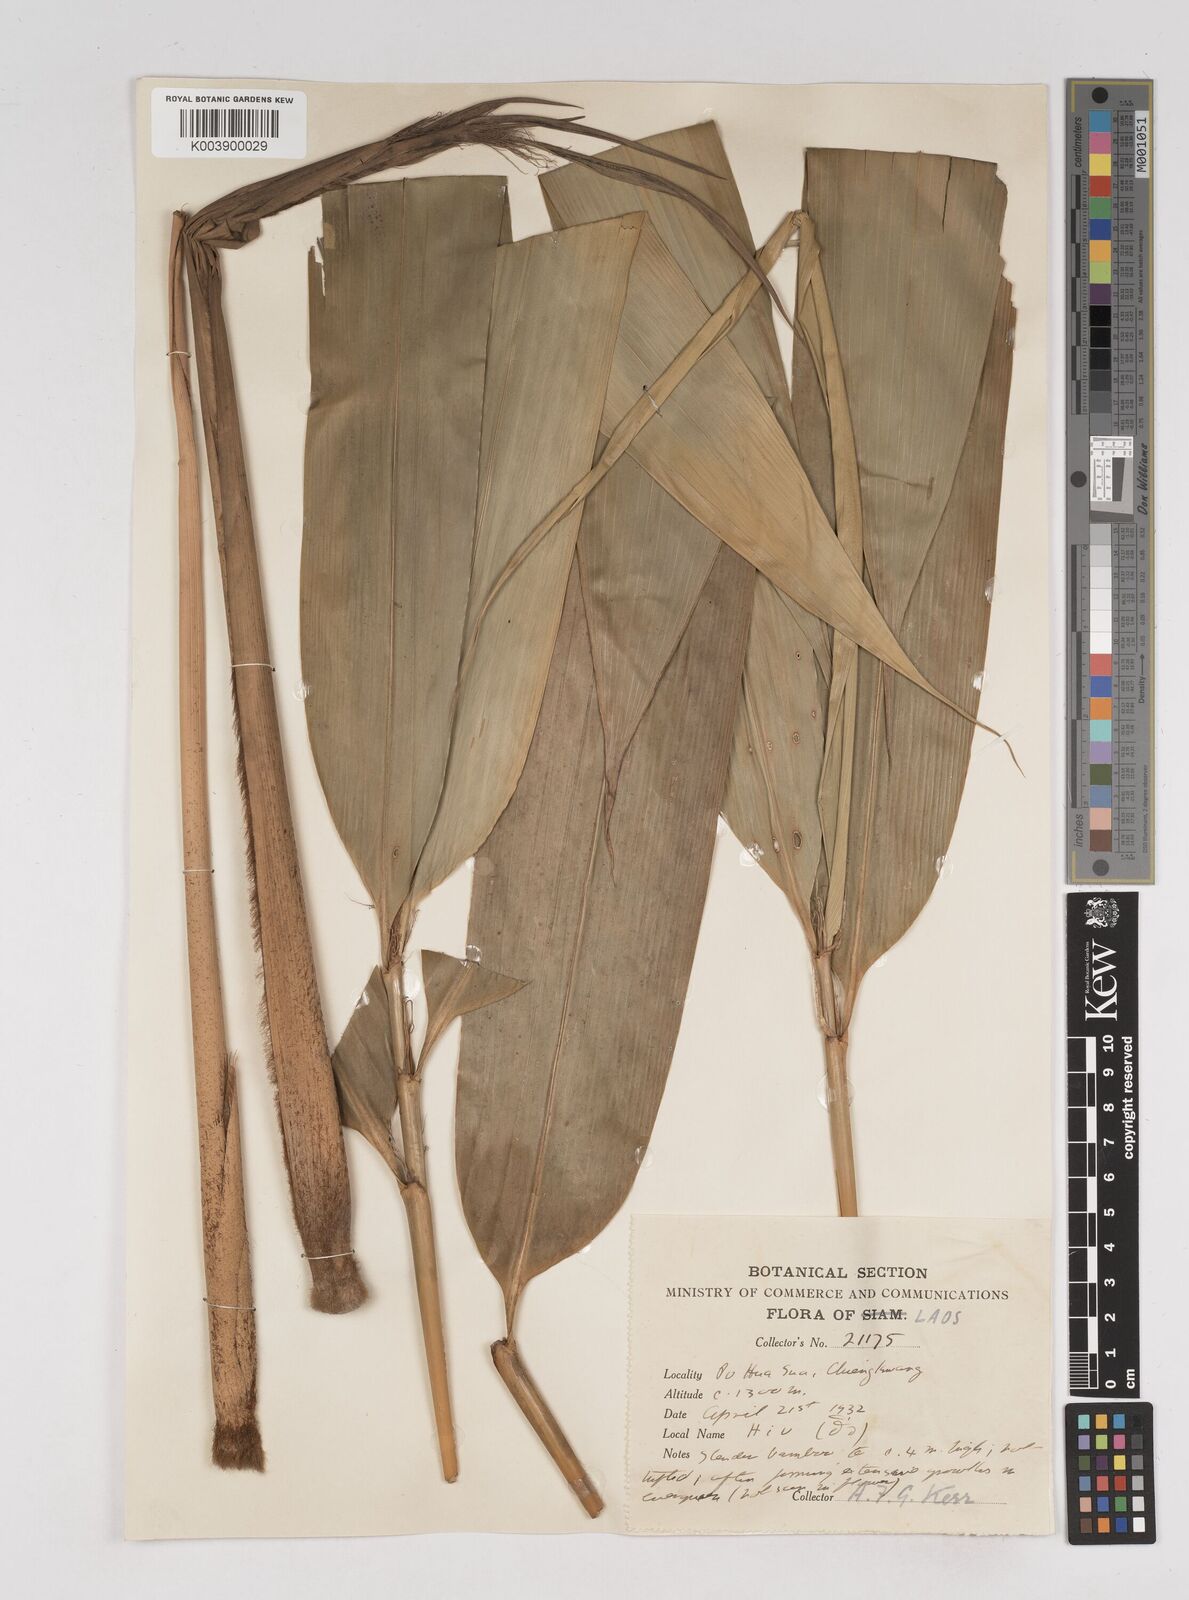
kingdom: Plantae
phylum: Tracheophyta
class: Liliopsida
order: Poales
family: Poaceae
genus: Gigantochloa
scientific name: Gigantochloa
